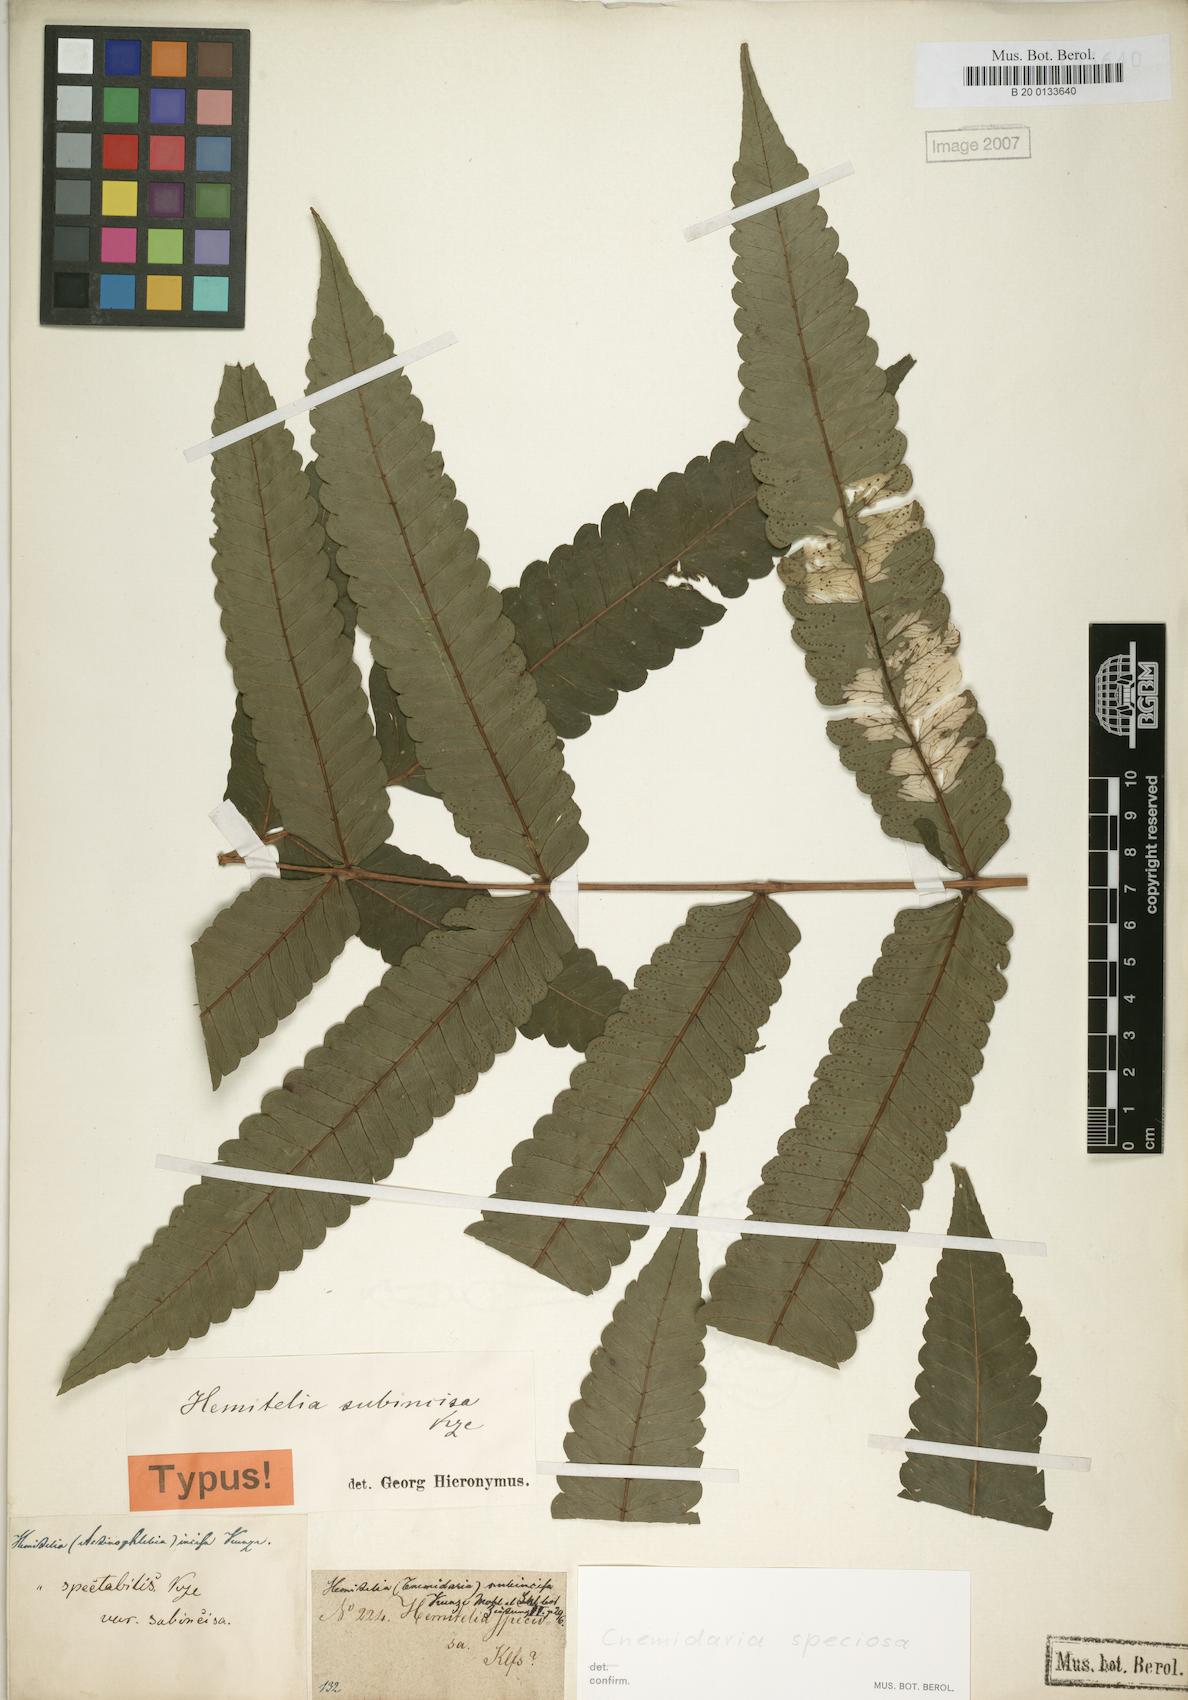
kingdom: Plantae
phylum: Tracheophyta
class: Polypodiopsida
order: Cyatheales
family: Cyatheaceae
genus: Cyathea
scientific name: Cyathea subincisa
